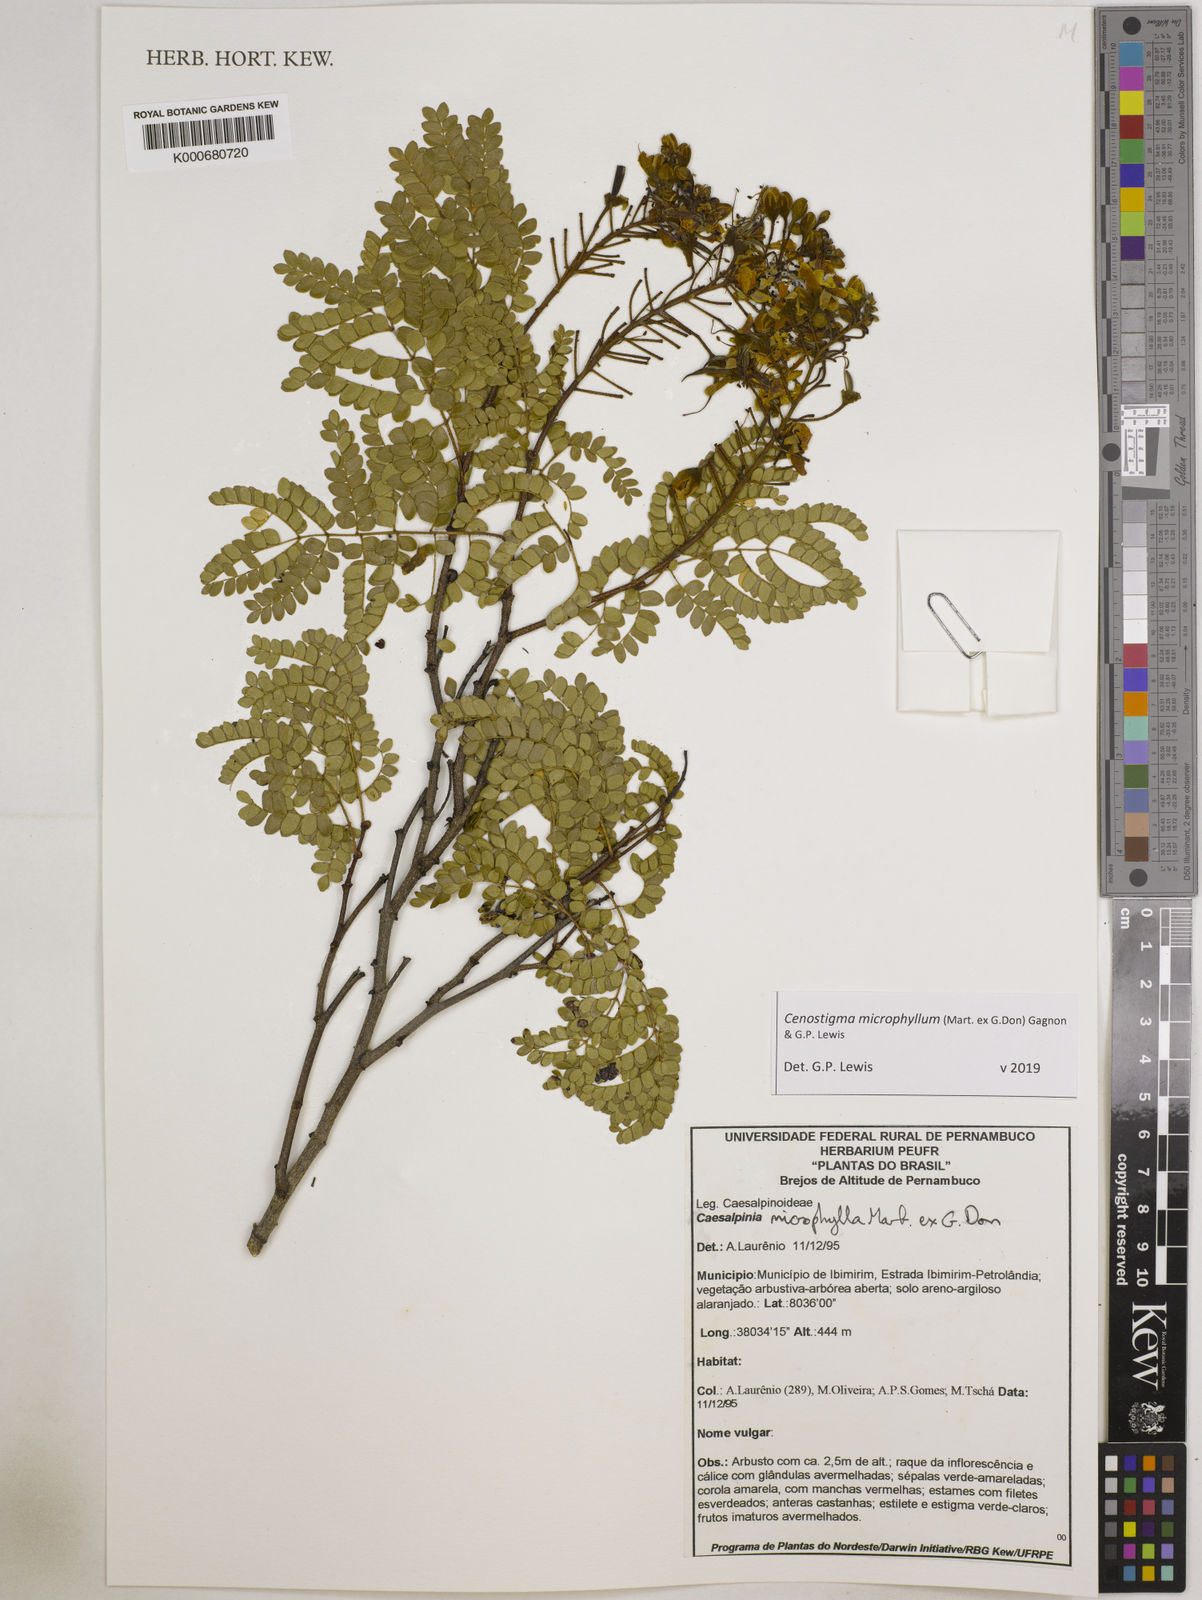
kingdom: Plantae
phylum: Tracheophyta
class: Magnoliopsida
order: Fabales
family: Fabaceae
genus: Cenostigma
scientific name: Cenostigma microphyllum
